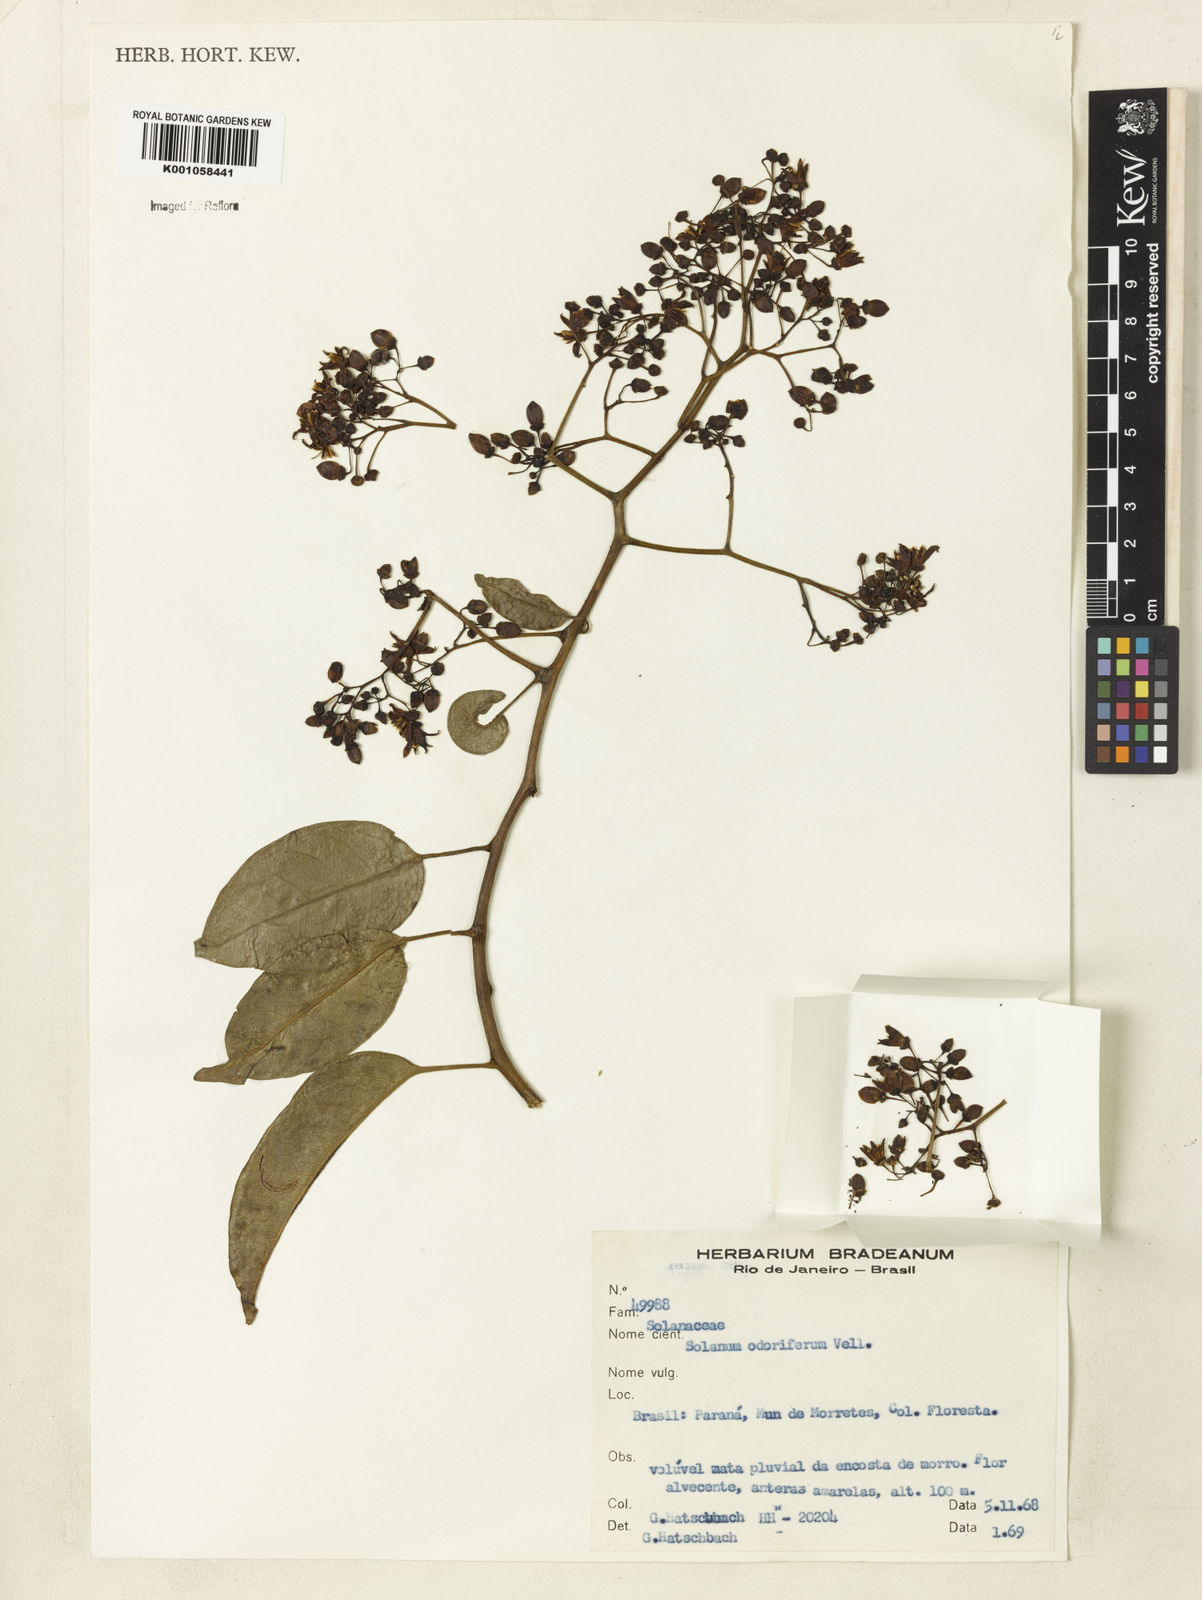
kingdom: Plantae
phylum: Tracheophyta
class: Magnoliopsida
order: Solanales
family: Solanaceae
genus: Solanum
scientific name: Solanum odoriferum
